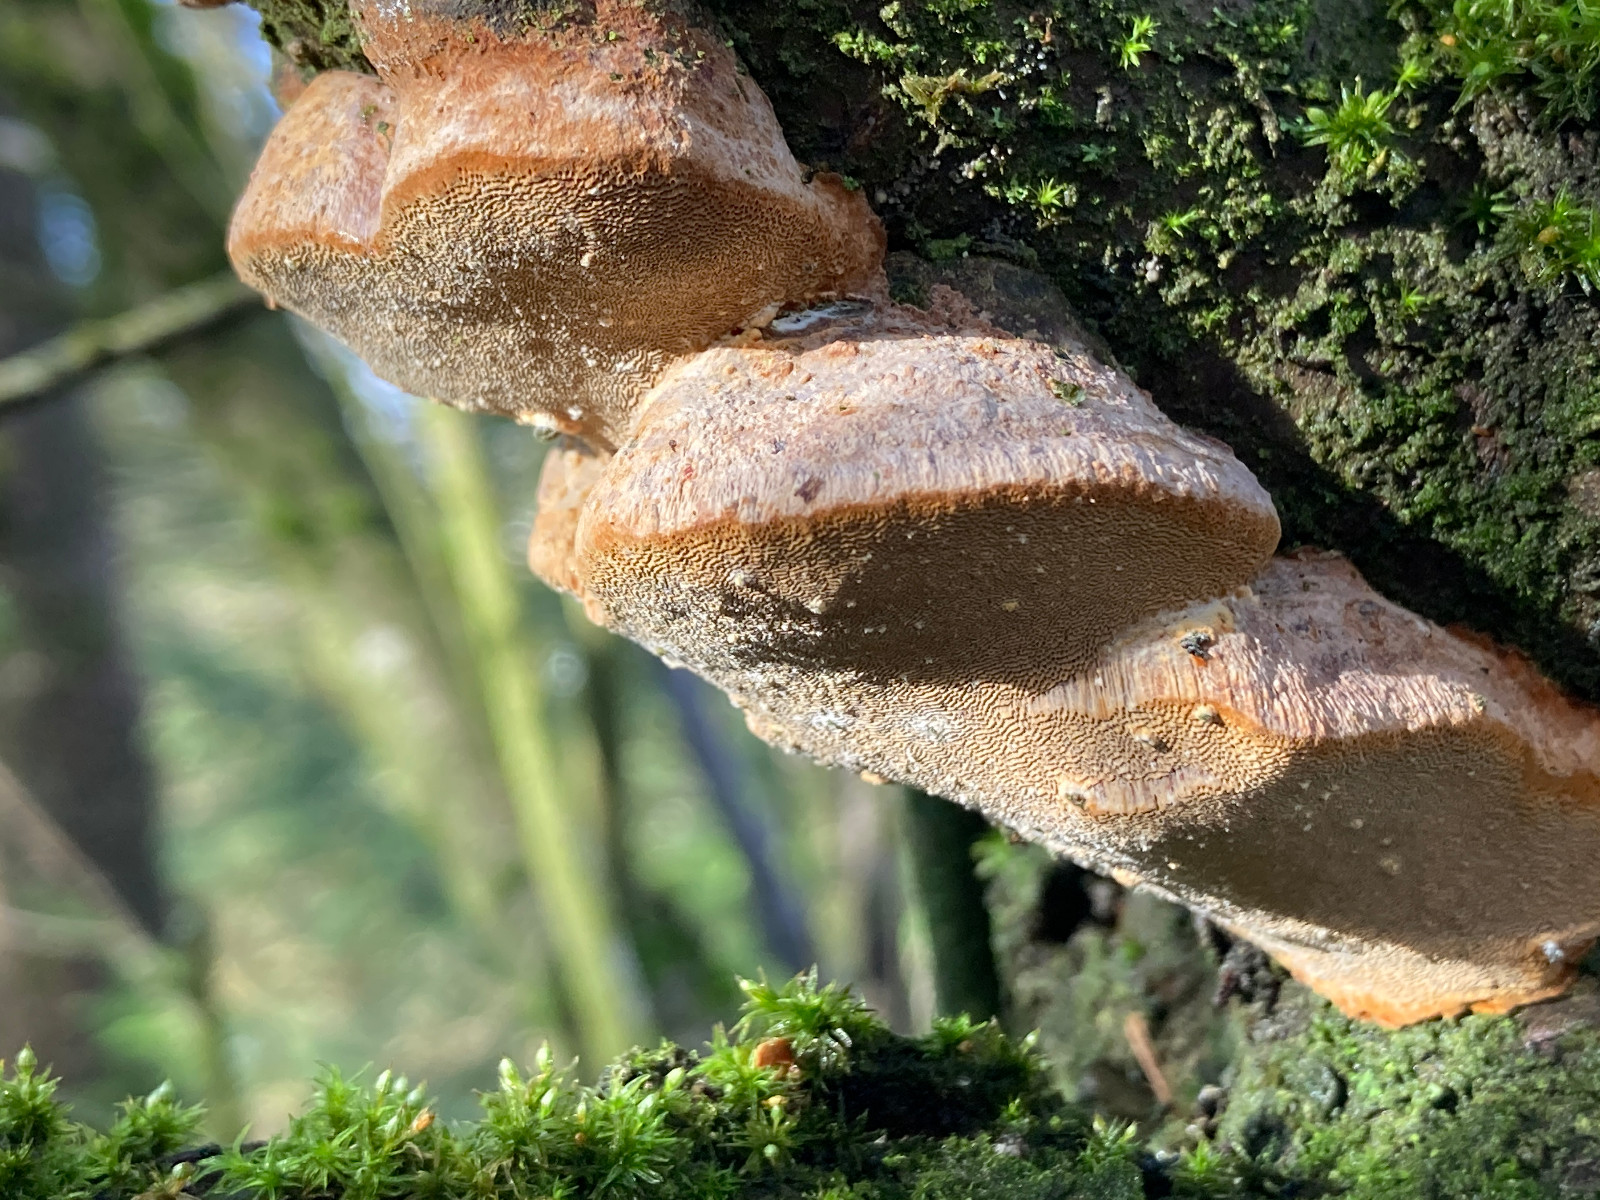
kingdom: Fungi
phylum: Basidiomycota
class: Agaricomycetes
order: Hymenochaetales
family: Hymenochaetaceae
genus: Phellinus
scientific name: Phellinus pomaceus
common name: blomme-ildporesvamp
